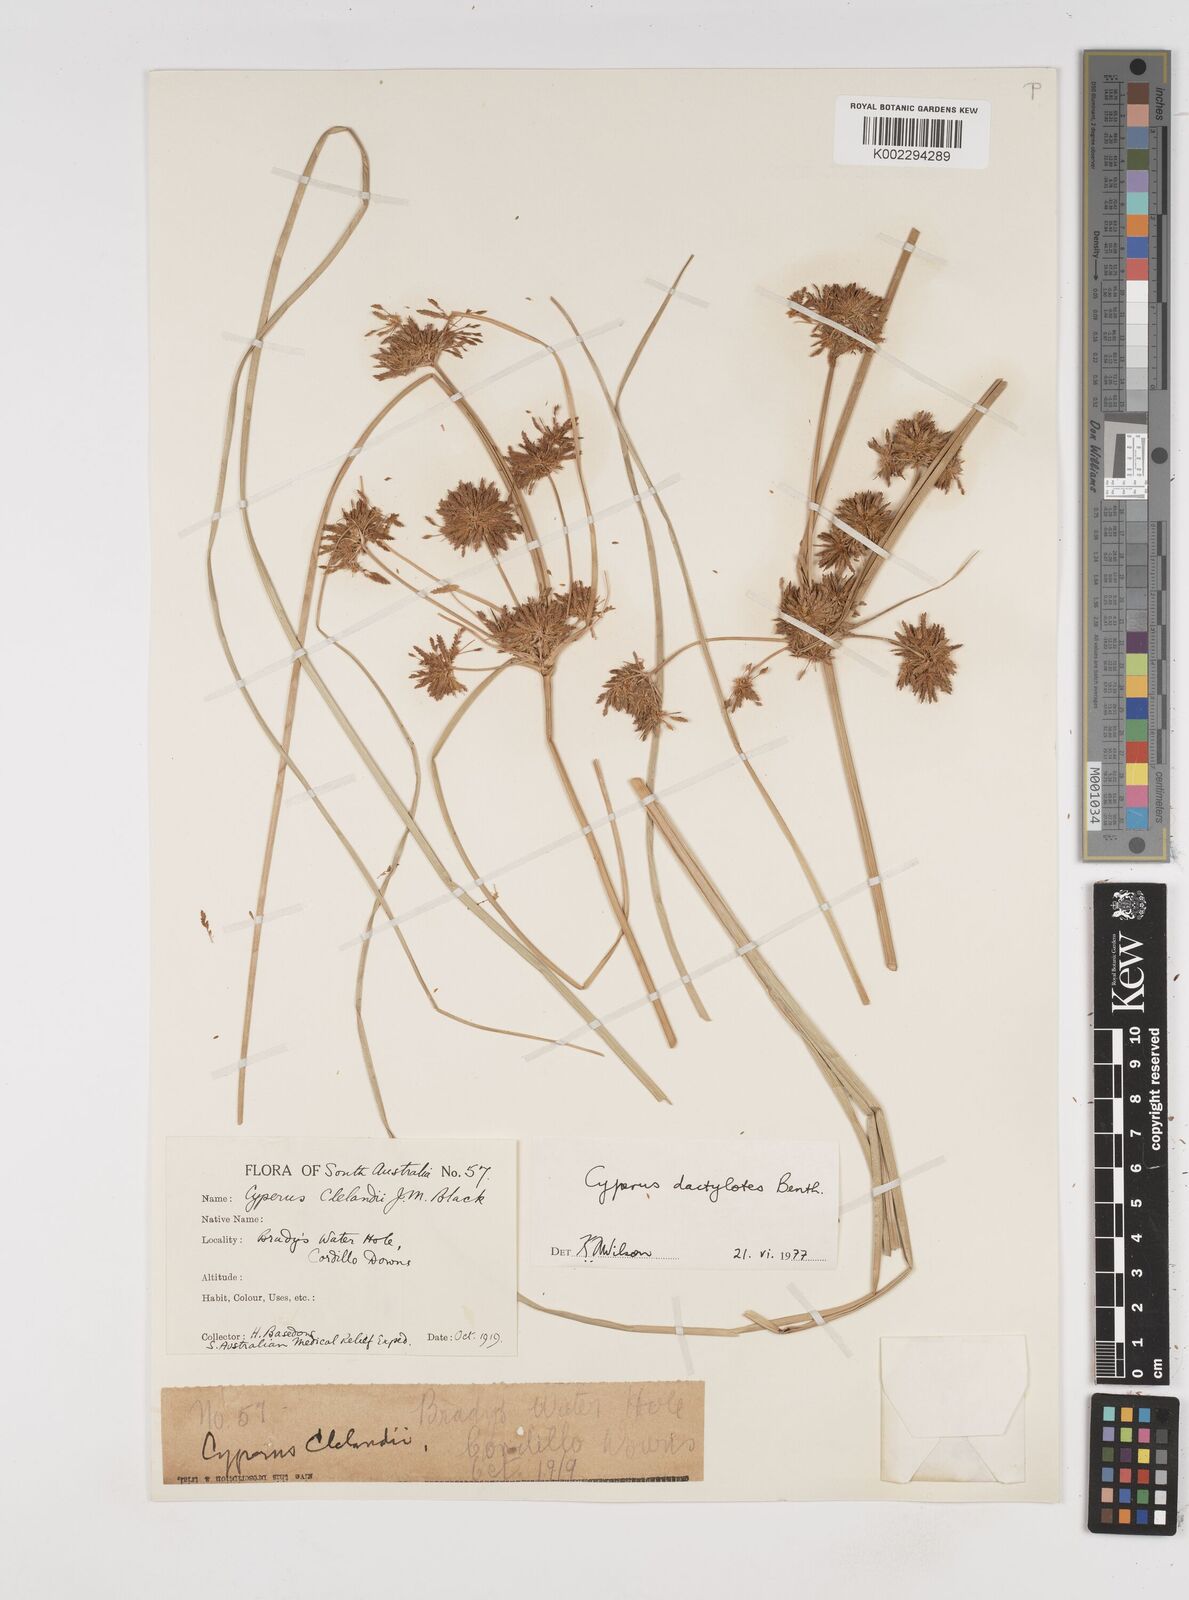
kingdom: Plantae
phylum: Tracheophyta
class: Liliopsida
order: Poales
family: Cyperaceae
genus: Cyperus
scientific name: Cyperus dactylotes
